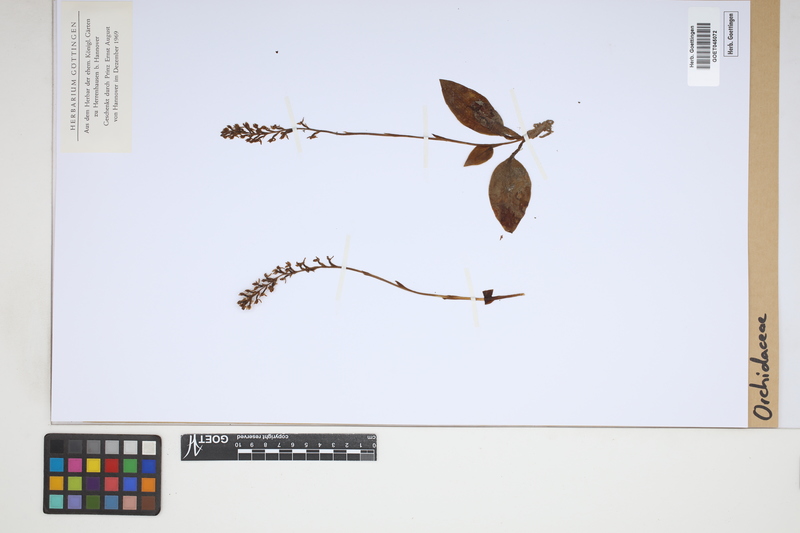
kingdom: Plantae
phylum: Tracheophyta
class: Liliopsida
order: Asparagales
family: Orchidaceae
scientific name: Orchidaceae
